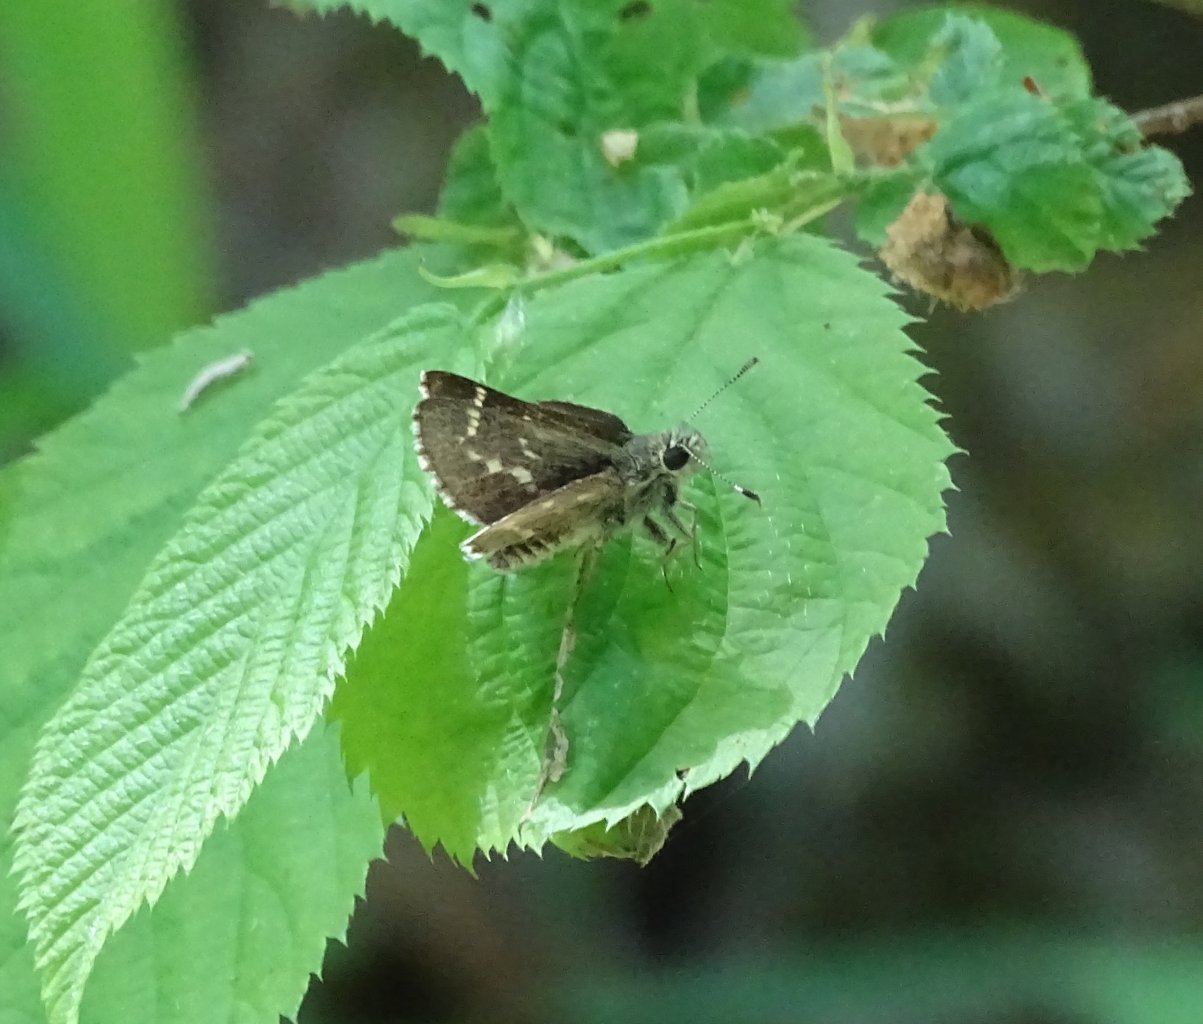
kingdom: Animalia
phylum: Arthropoda
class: Insecta
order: Lepidoptera
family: Hesperiidae
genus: Mastor
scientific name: Mastor hegon
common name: Pepper and Salt Skipper
